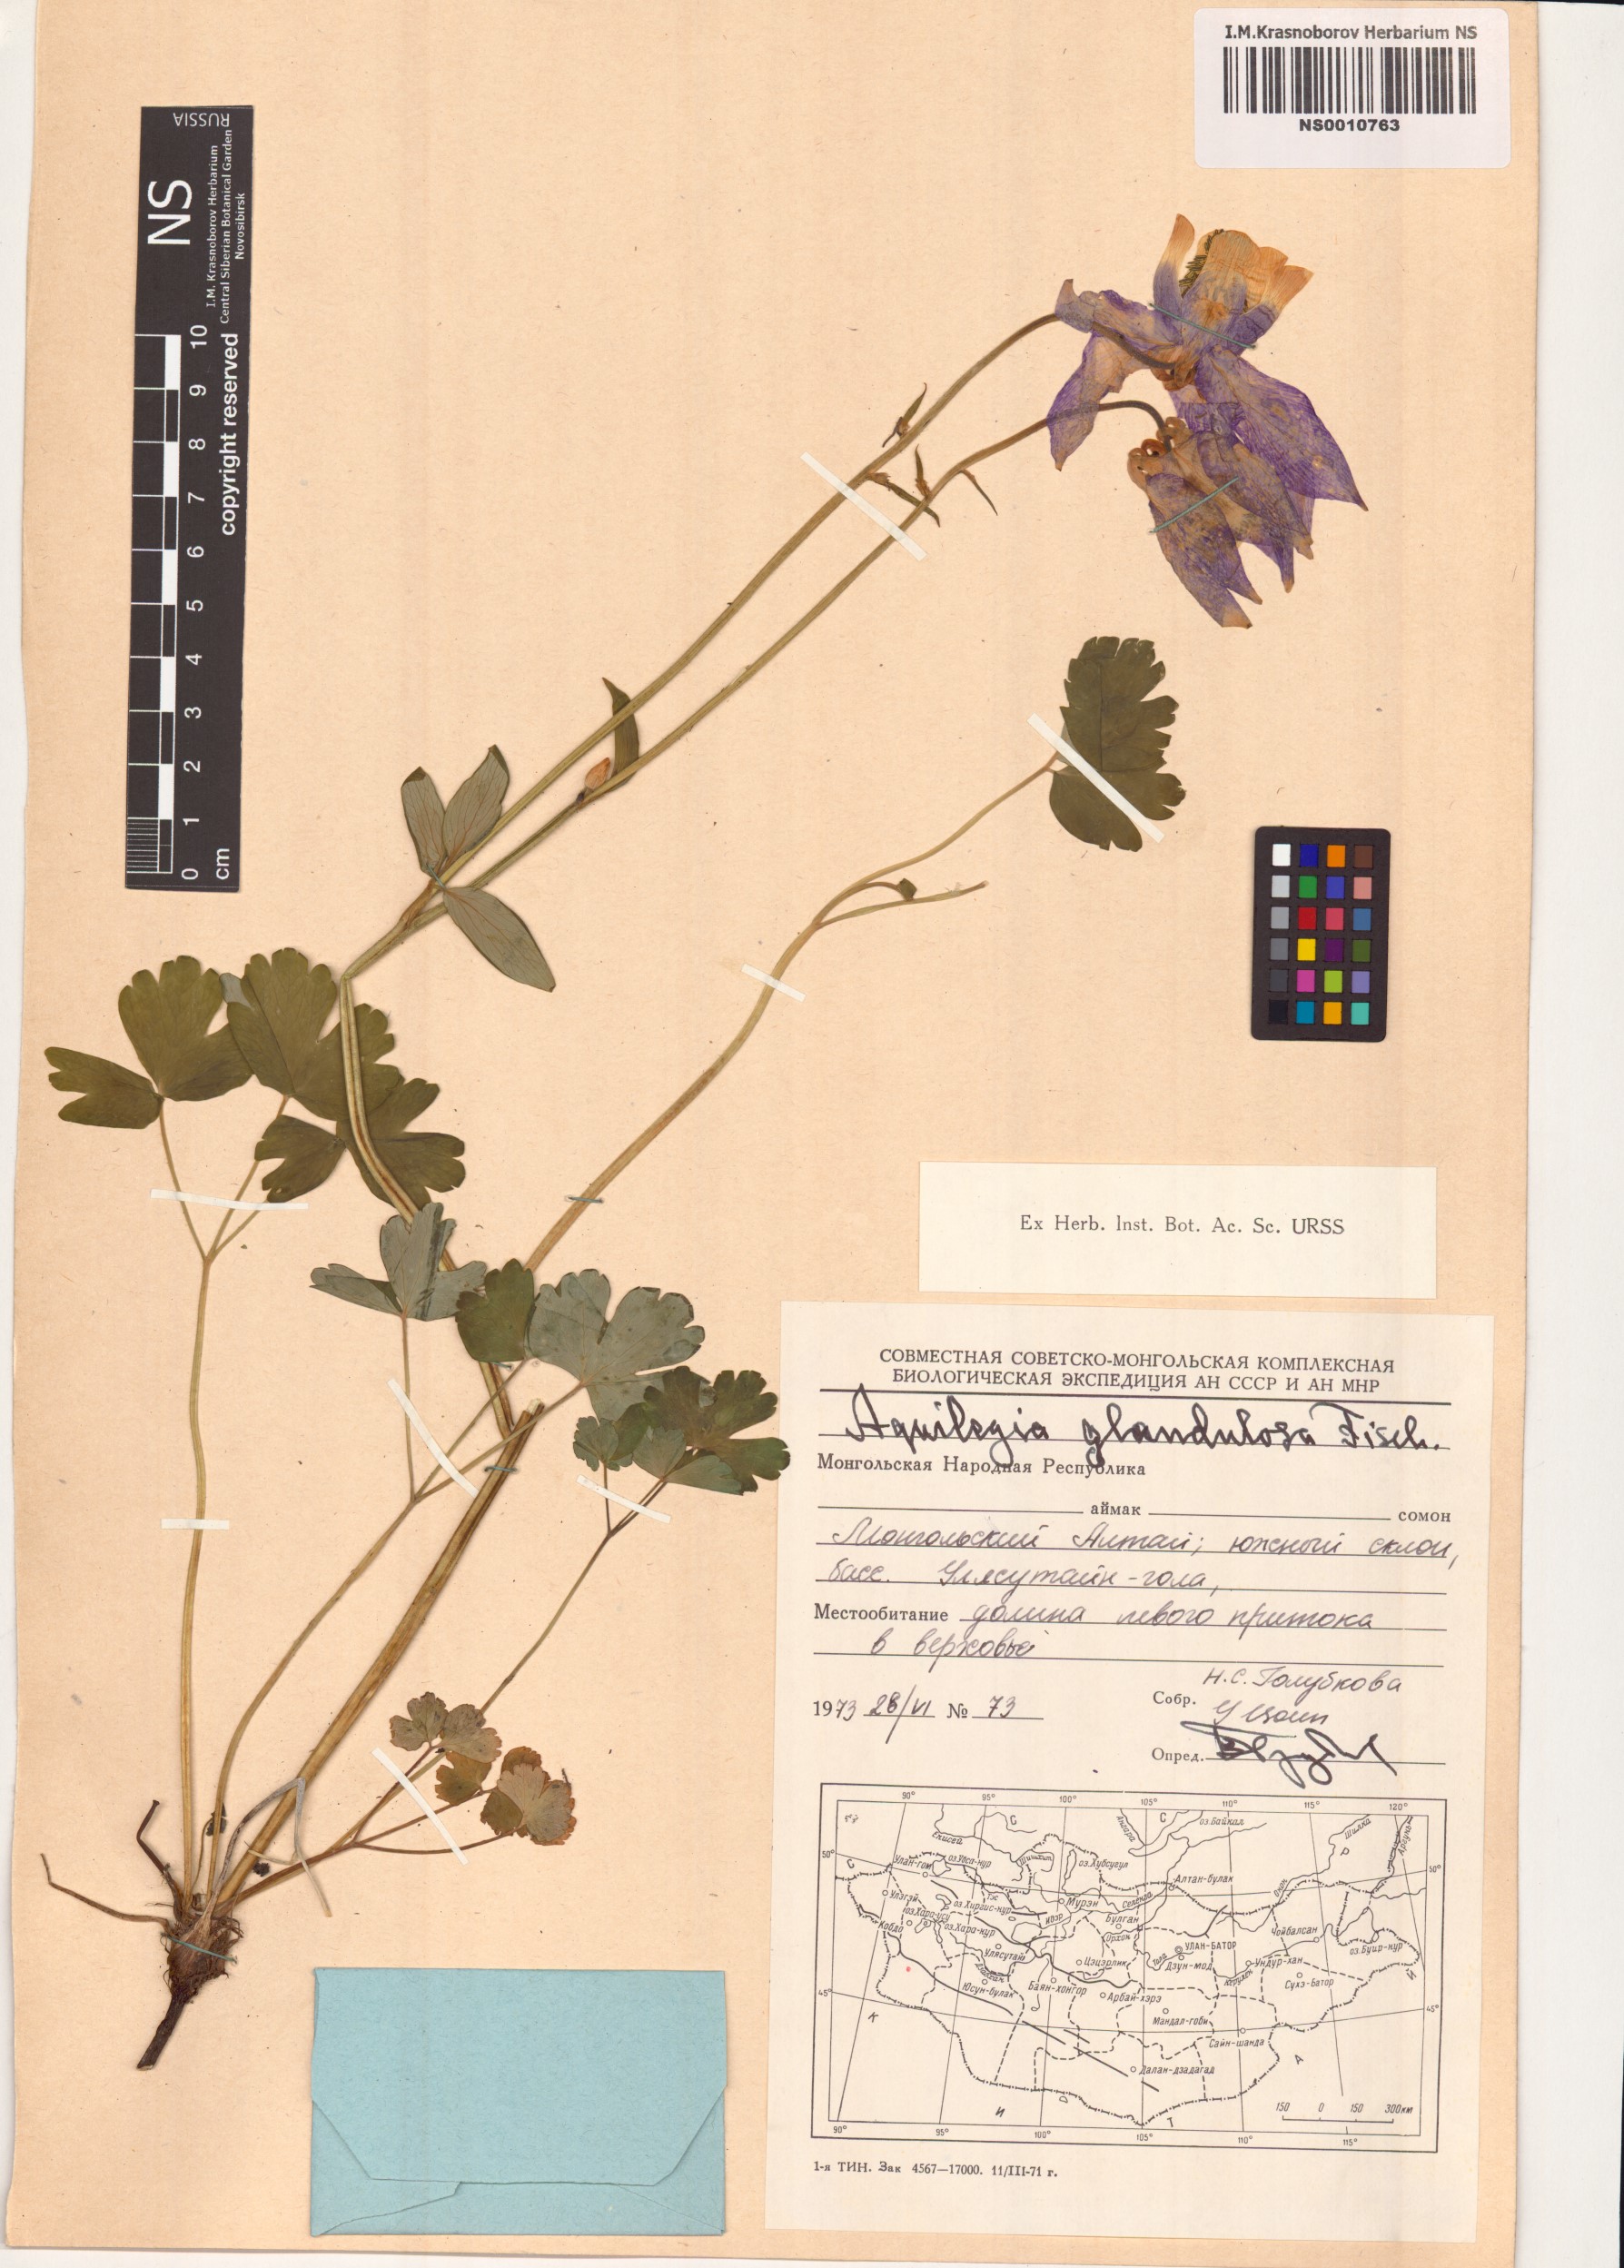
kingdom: Plantae
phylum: Tracheophyta
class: Magnoliopsida
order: Ranunculales
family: Ranunculaceae
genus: Aquilegia
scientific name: Aquilegia glandulosa
